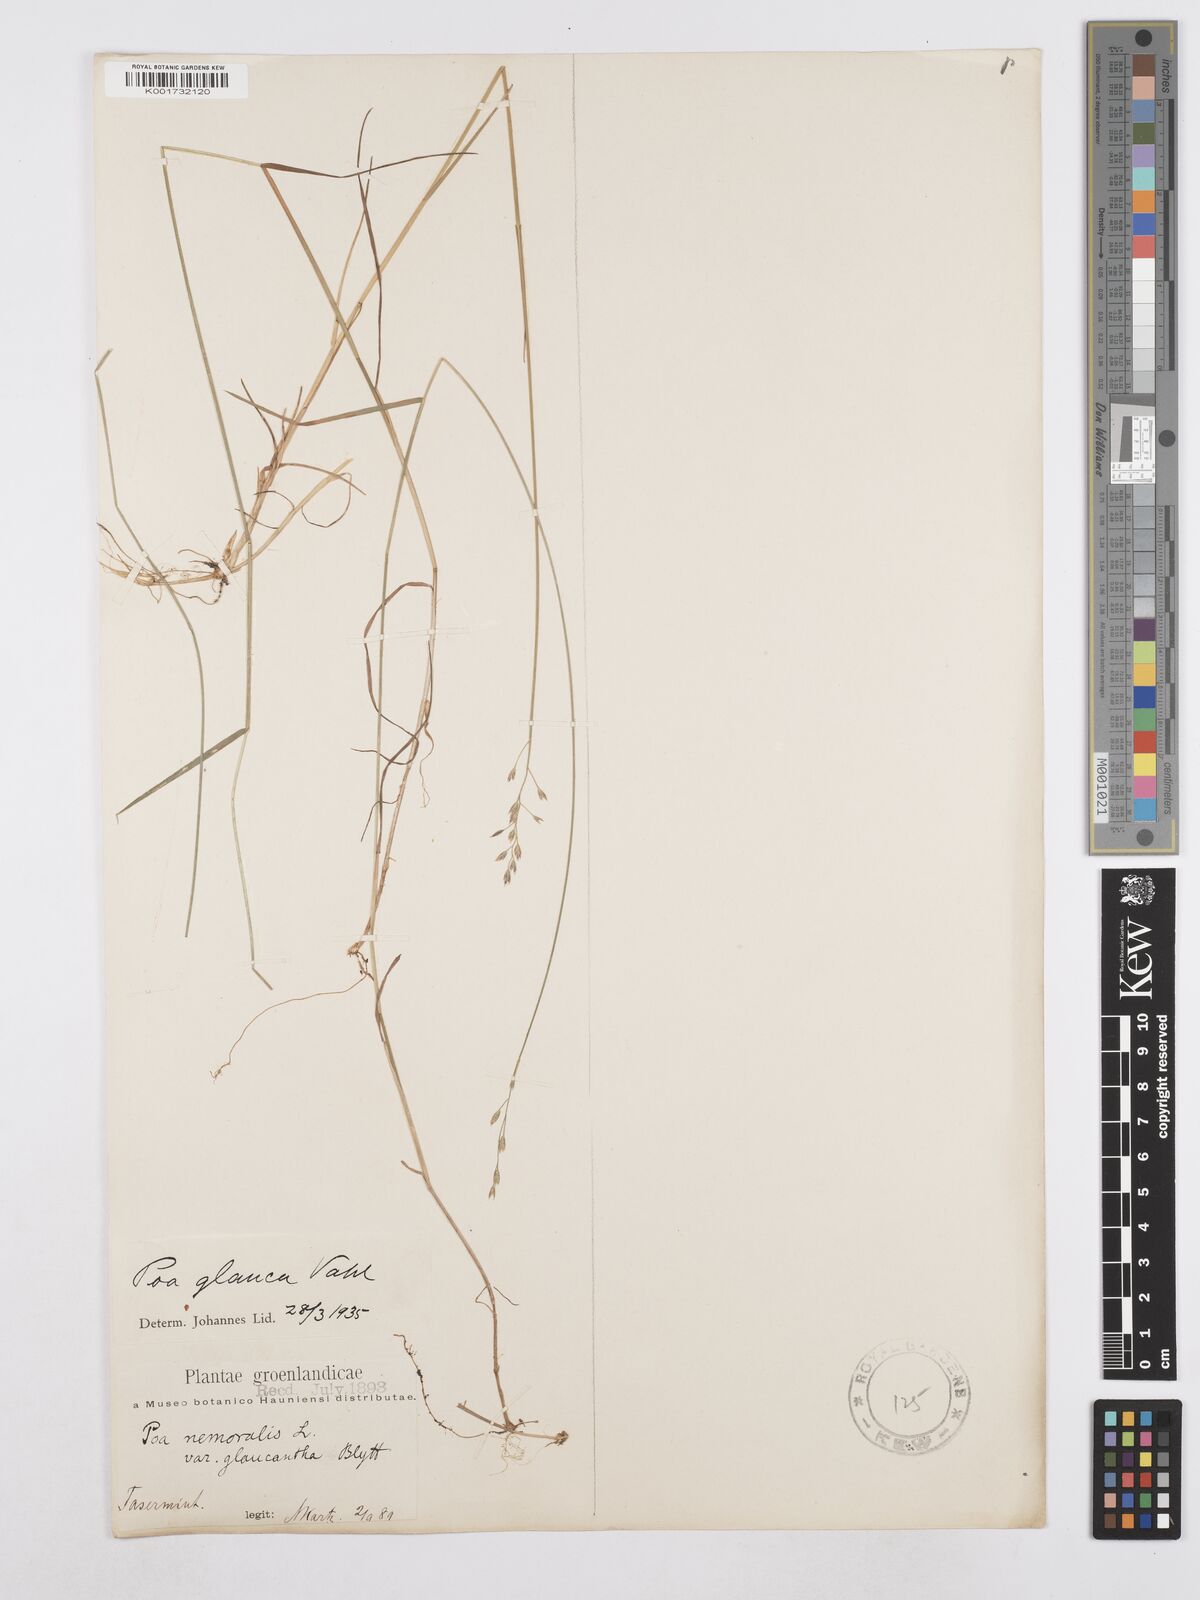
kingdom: Plantae
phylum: Tracheophyta
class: Liliopsida
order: Poales
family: Poaceae
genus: Poa
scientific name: Poa glauca
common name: Glaucous bluegrass
